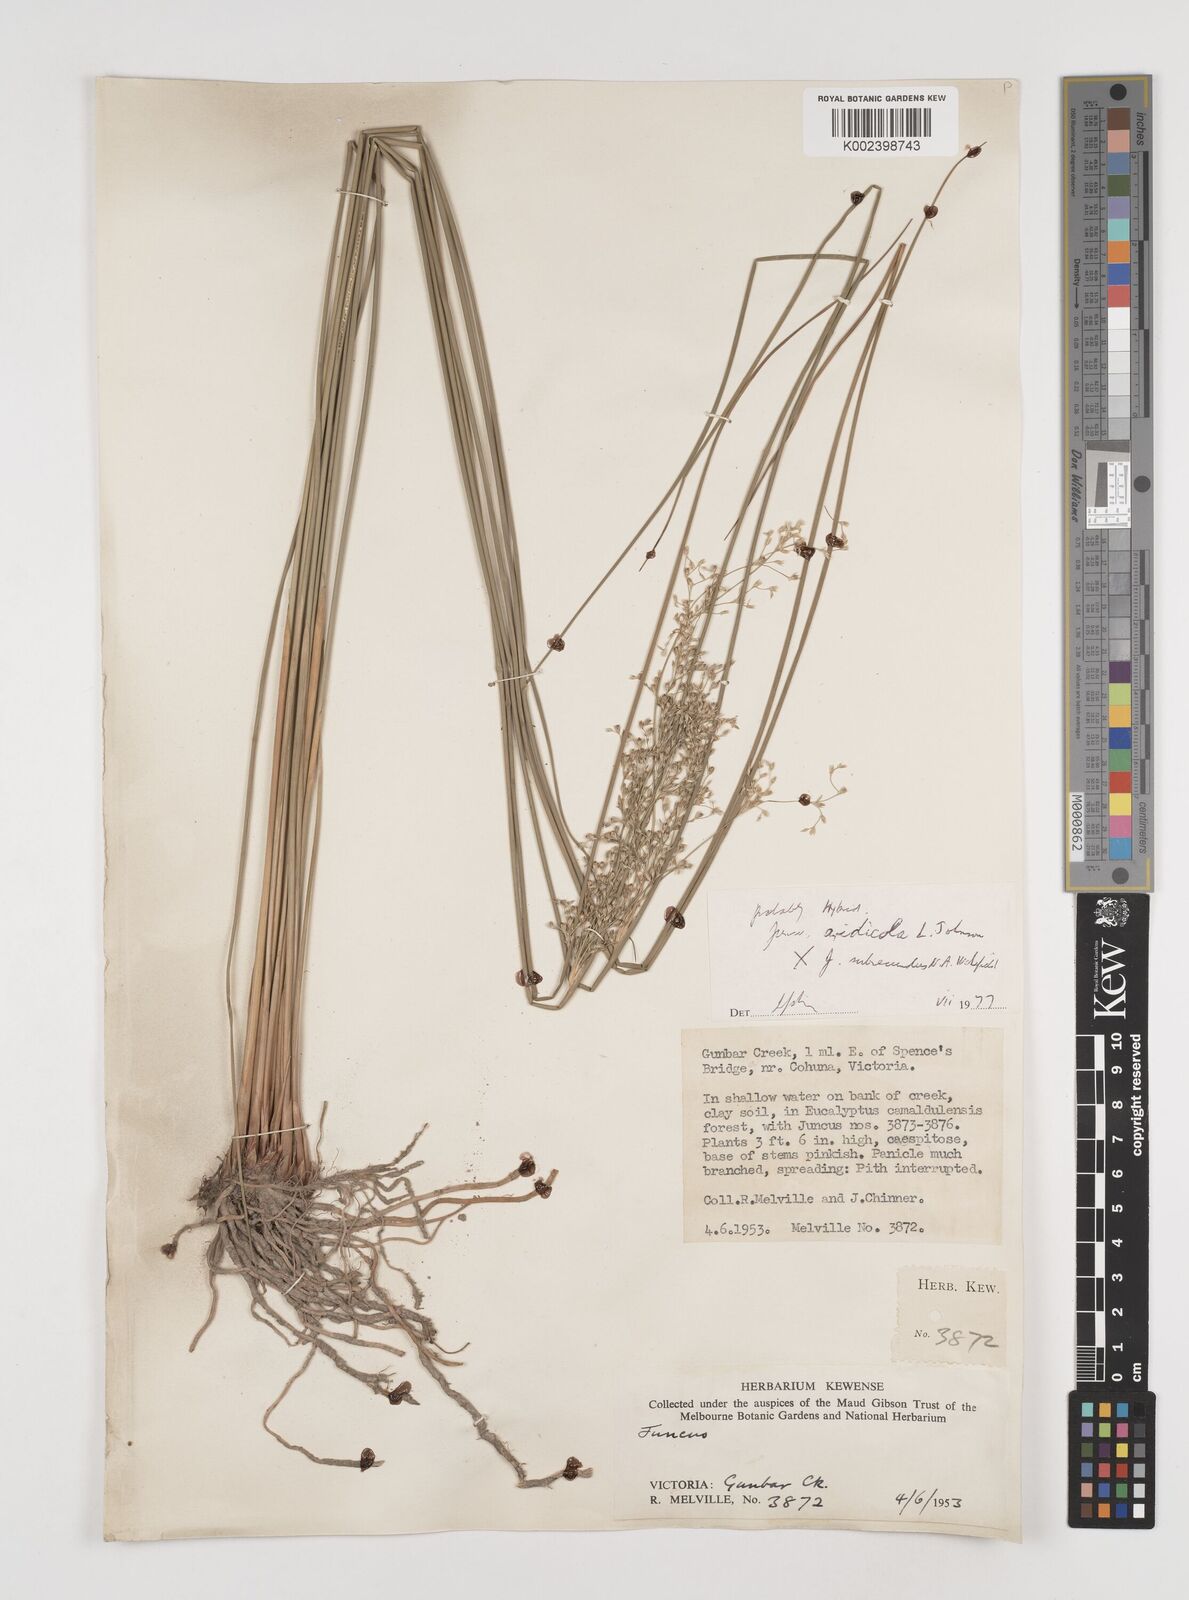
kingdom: Plantae
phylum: Tracheophyta
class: Liliopsida
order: Poales
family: Juncaceae
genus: Juncus
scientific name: Juncus aridicola
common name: Tussock rush
